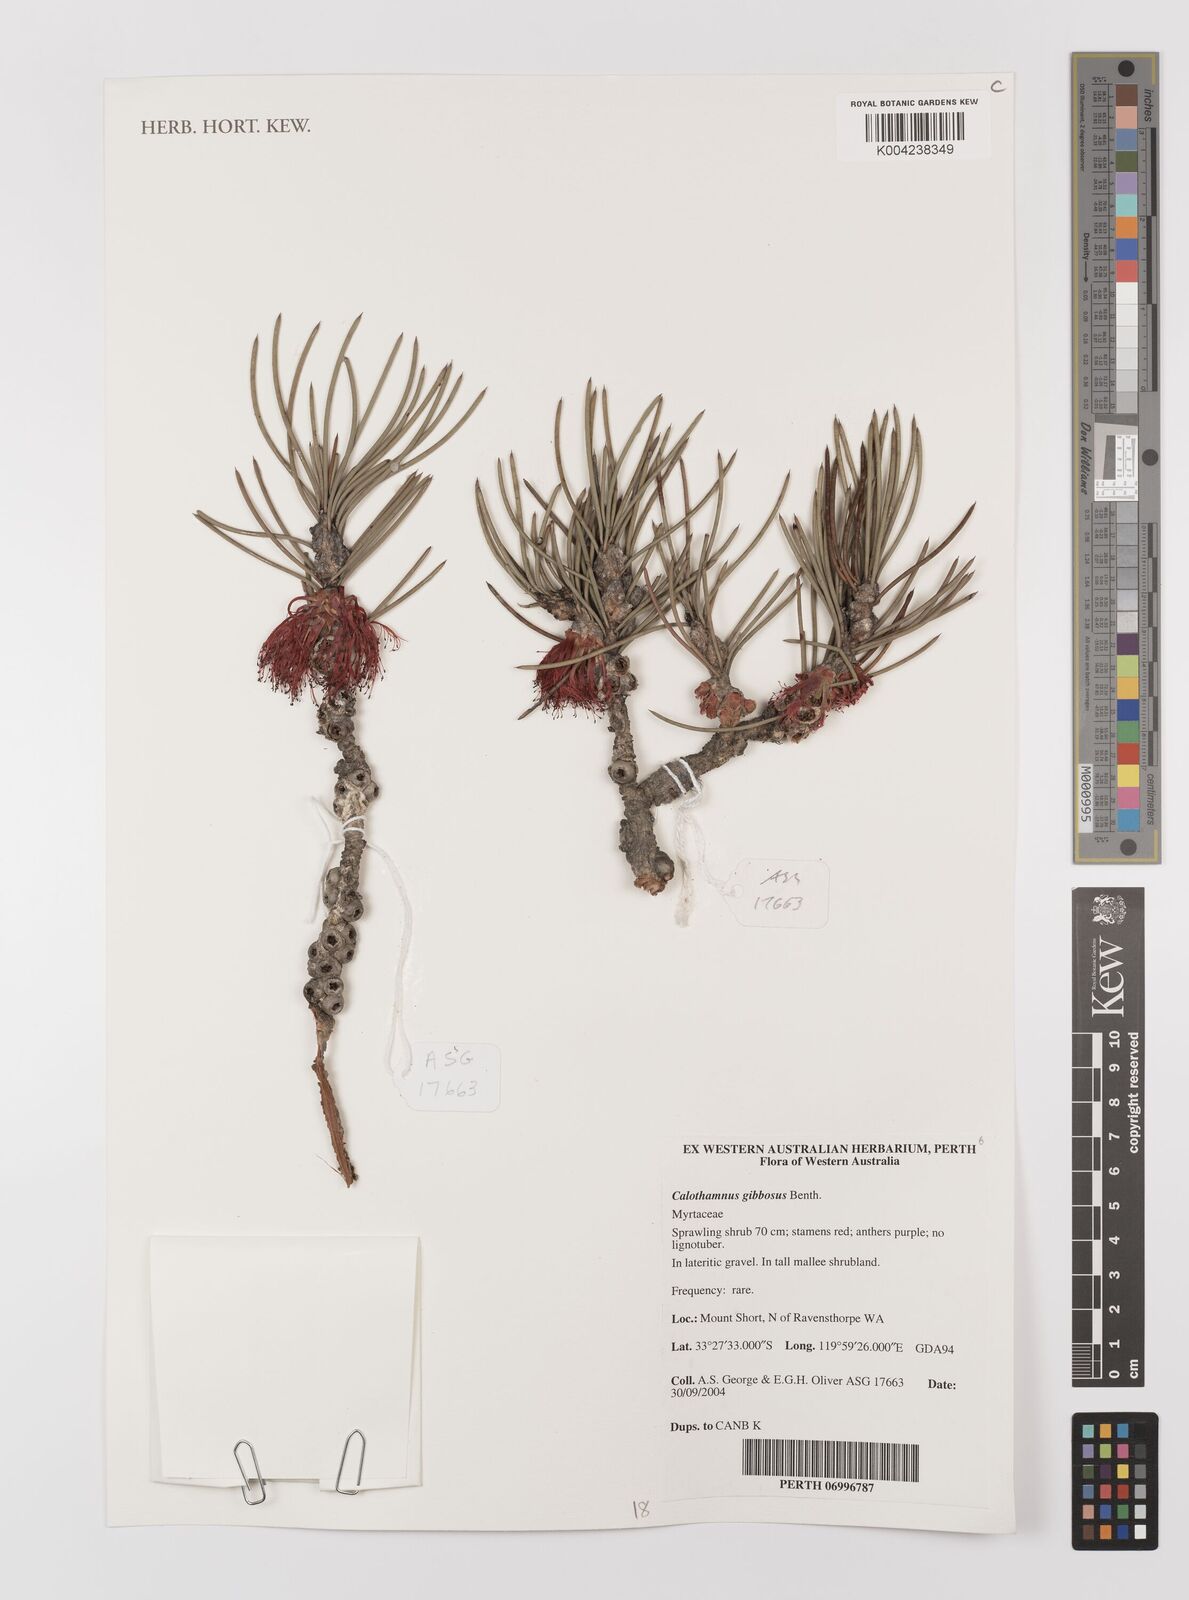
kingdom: Plantae
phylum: Tracheophyta
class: Magnoliopsida
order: Myrtales
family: Myrtaceae
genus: Melaleuca
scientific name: Melaleuca protumida
